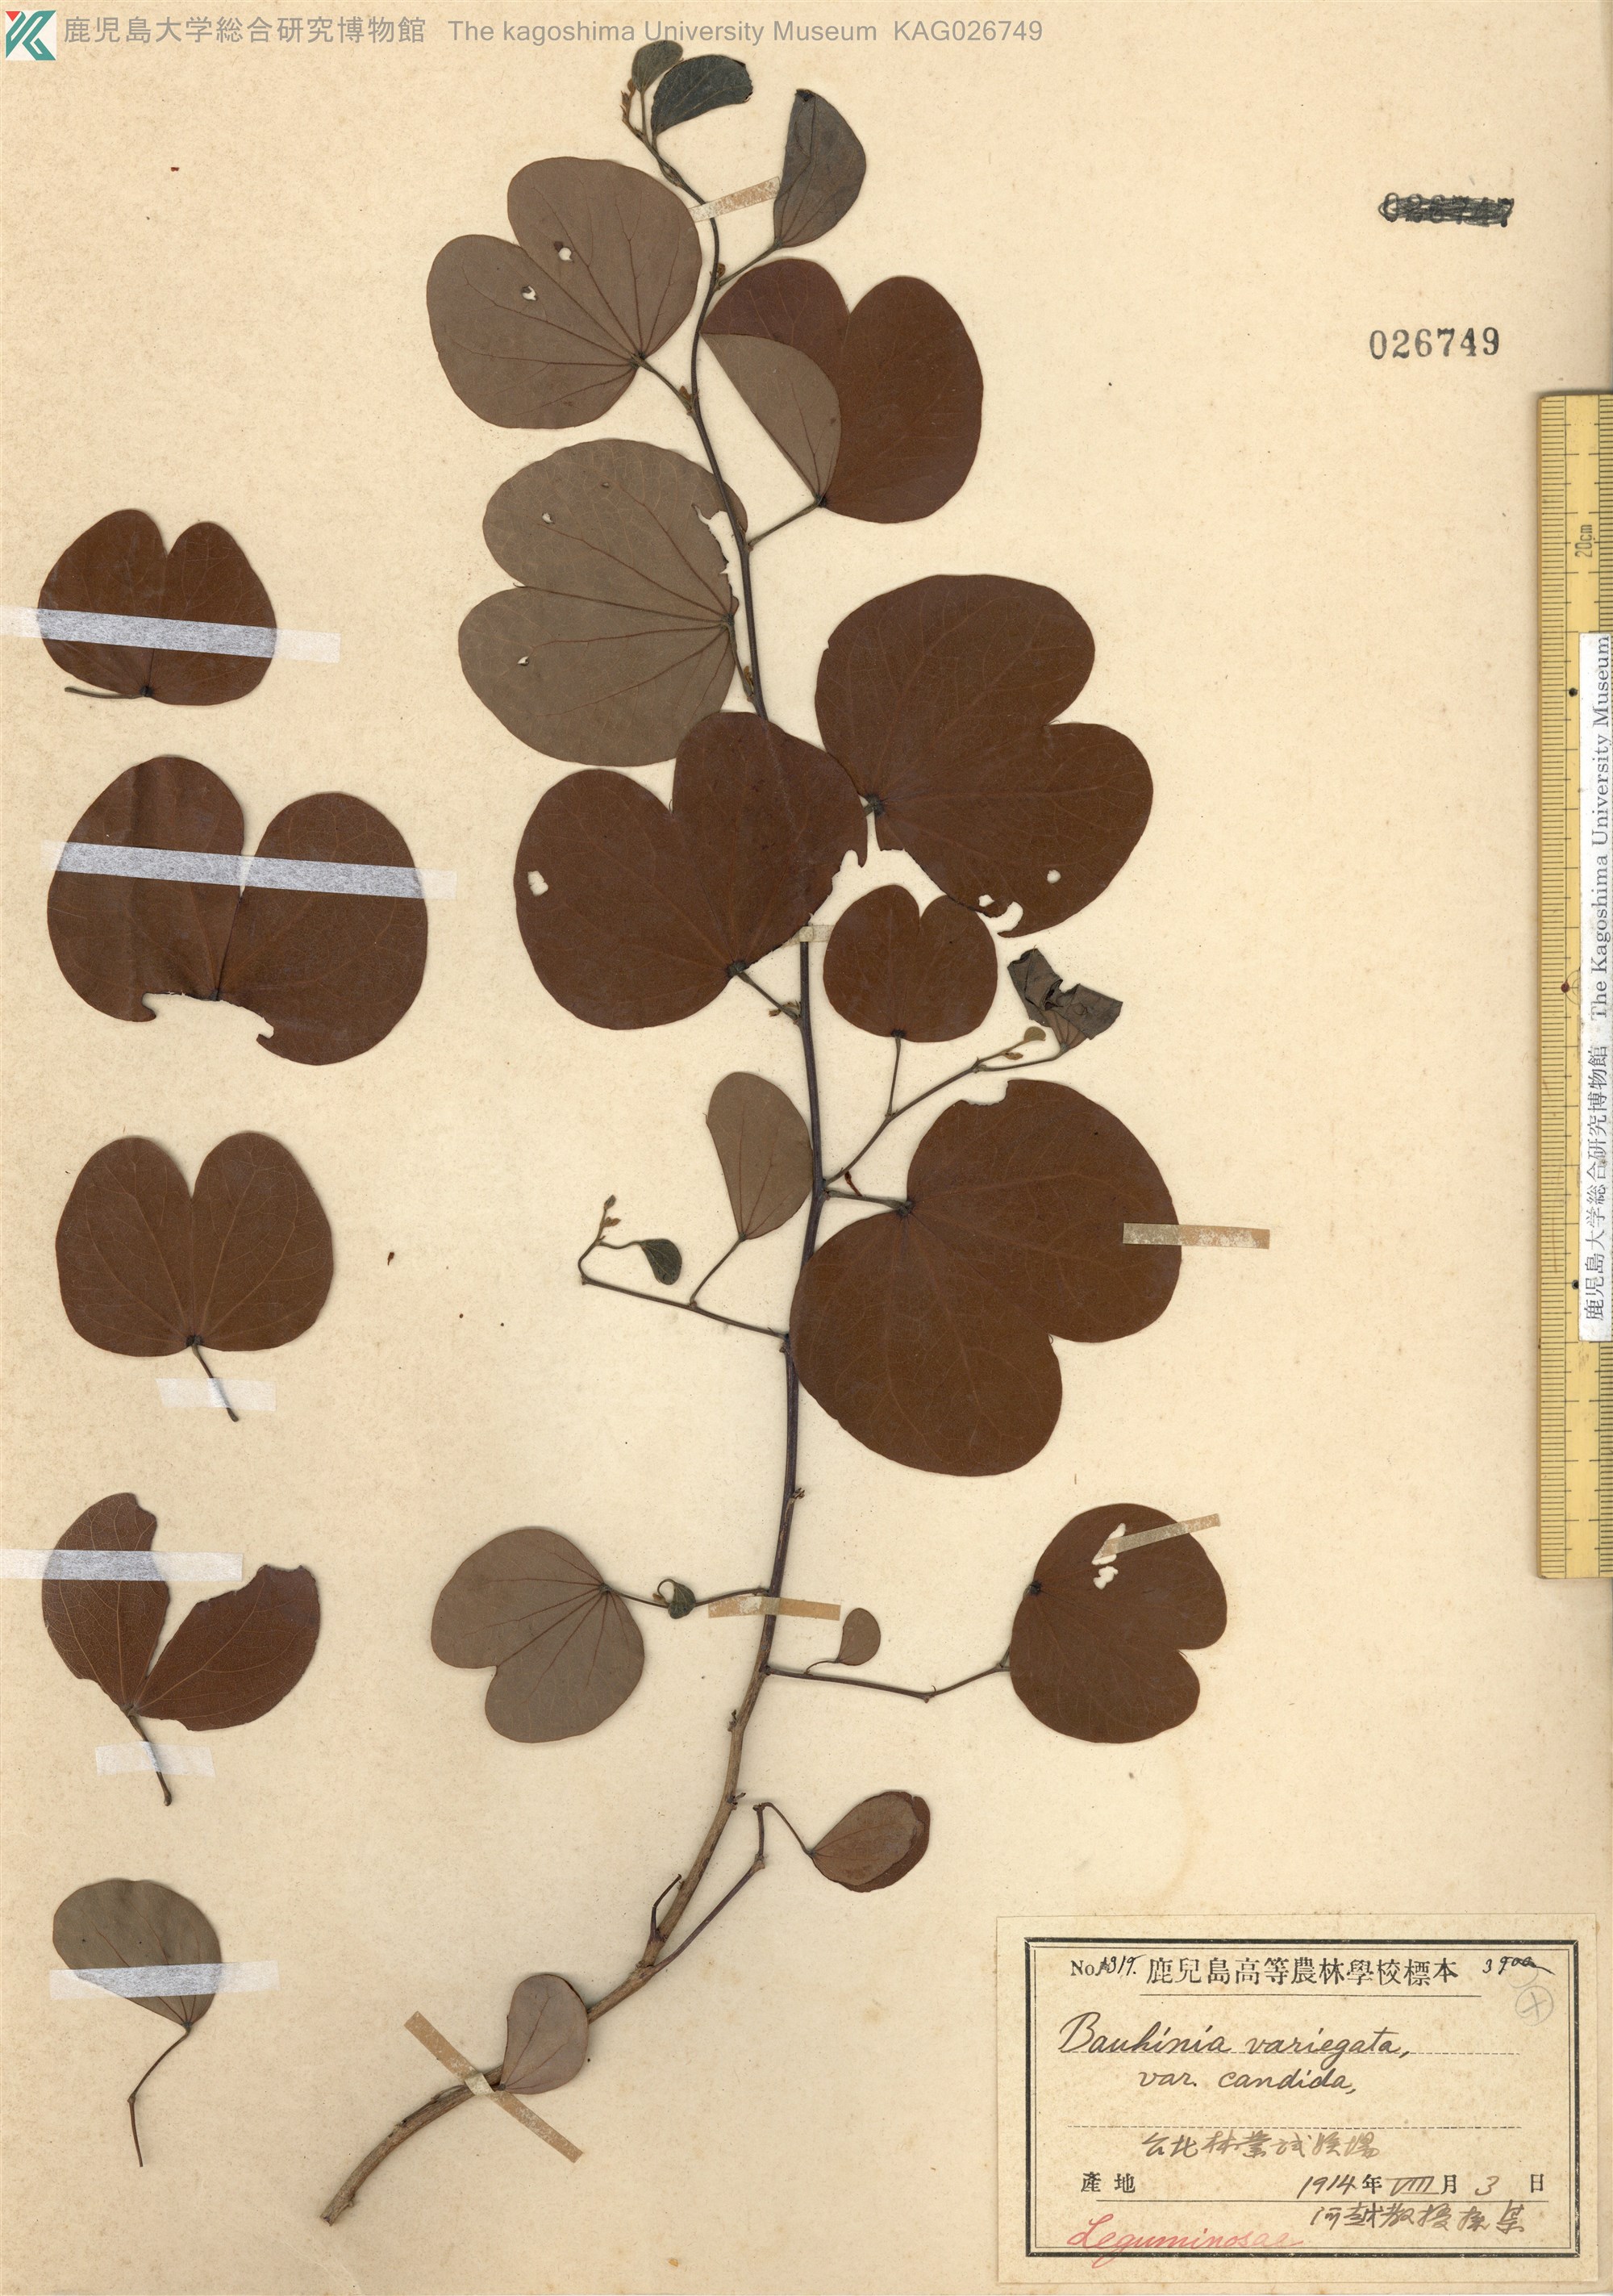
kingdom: Plantae
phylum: Tracheophyta
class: Magnoliopsida
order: Fabales
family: Fabaceae
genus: Bauhinia
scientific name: Bauhinia variegata
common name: Mountain ebony
